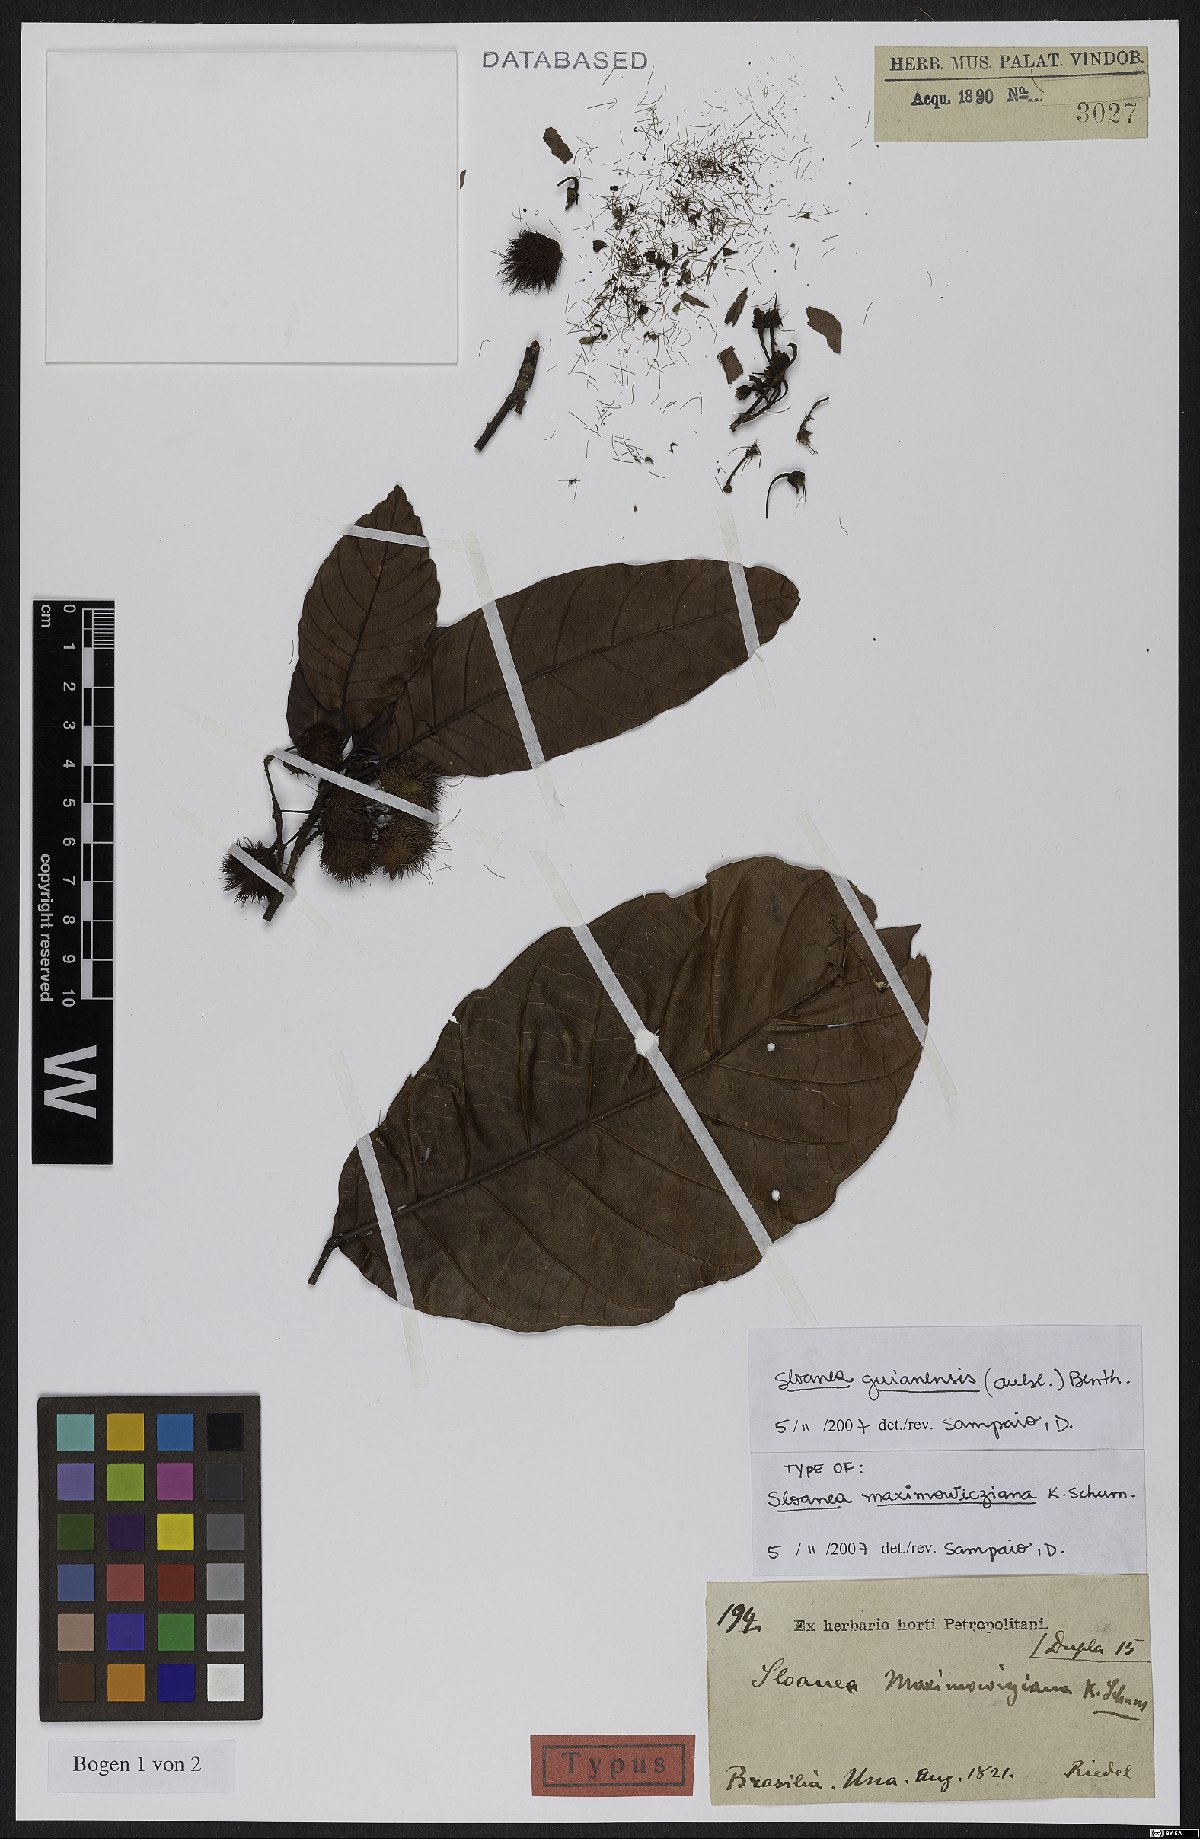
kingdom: Plantae
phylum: Tracheophyta
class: Magnoliopsida
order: Oxalidales
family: Elaeocarpaceae
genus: Sloanea
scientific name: Sloanea guianensis
